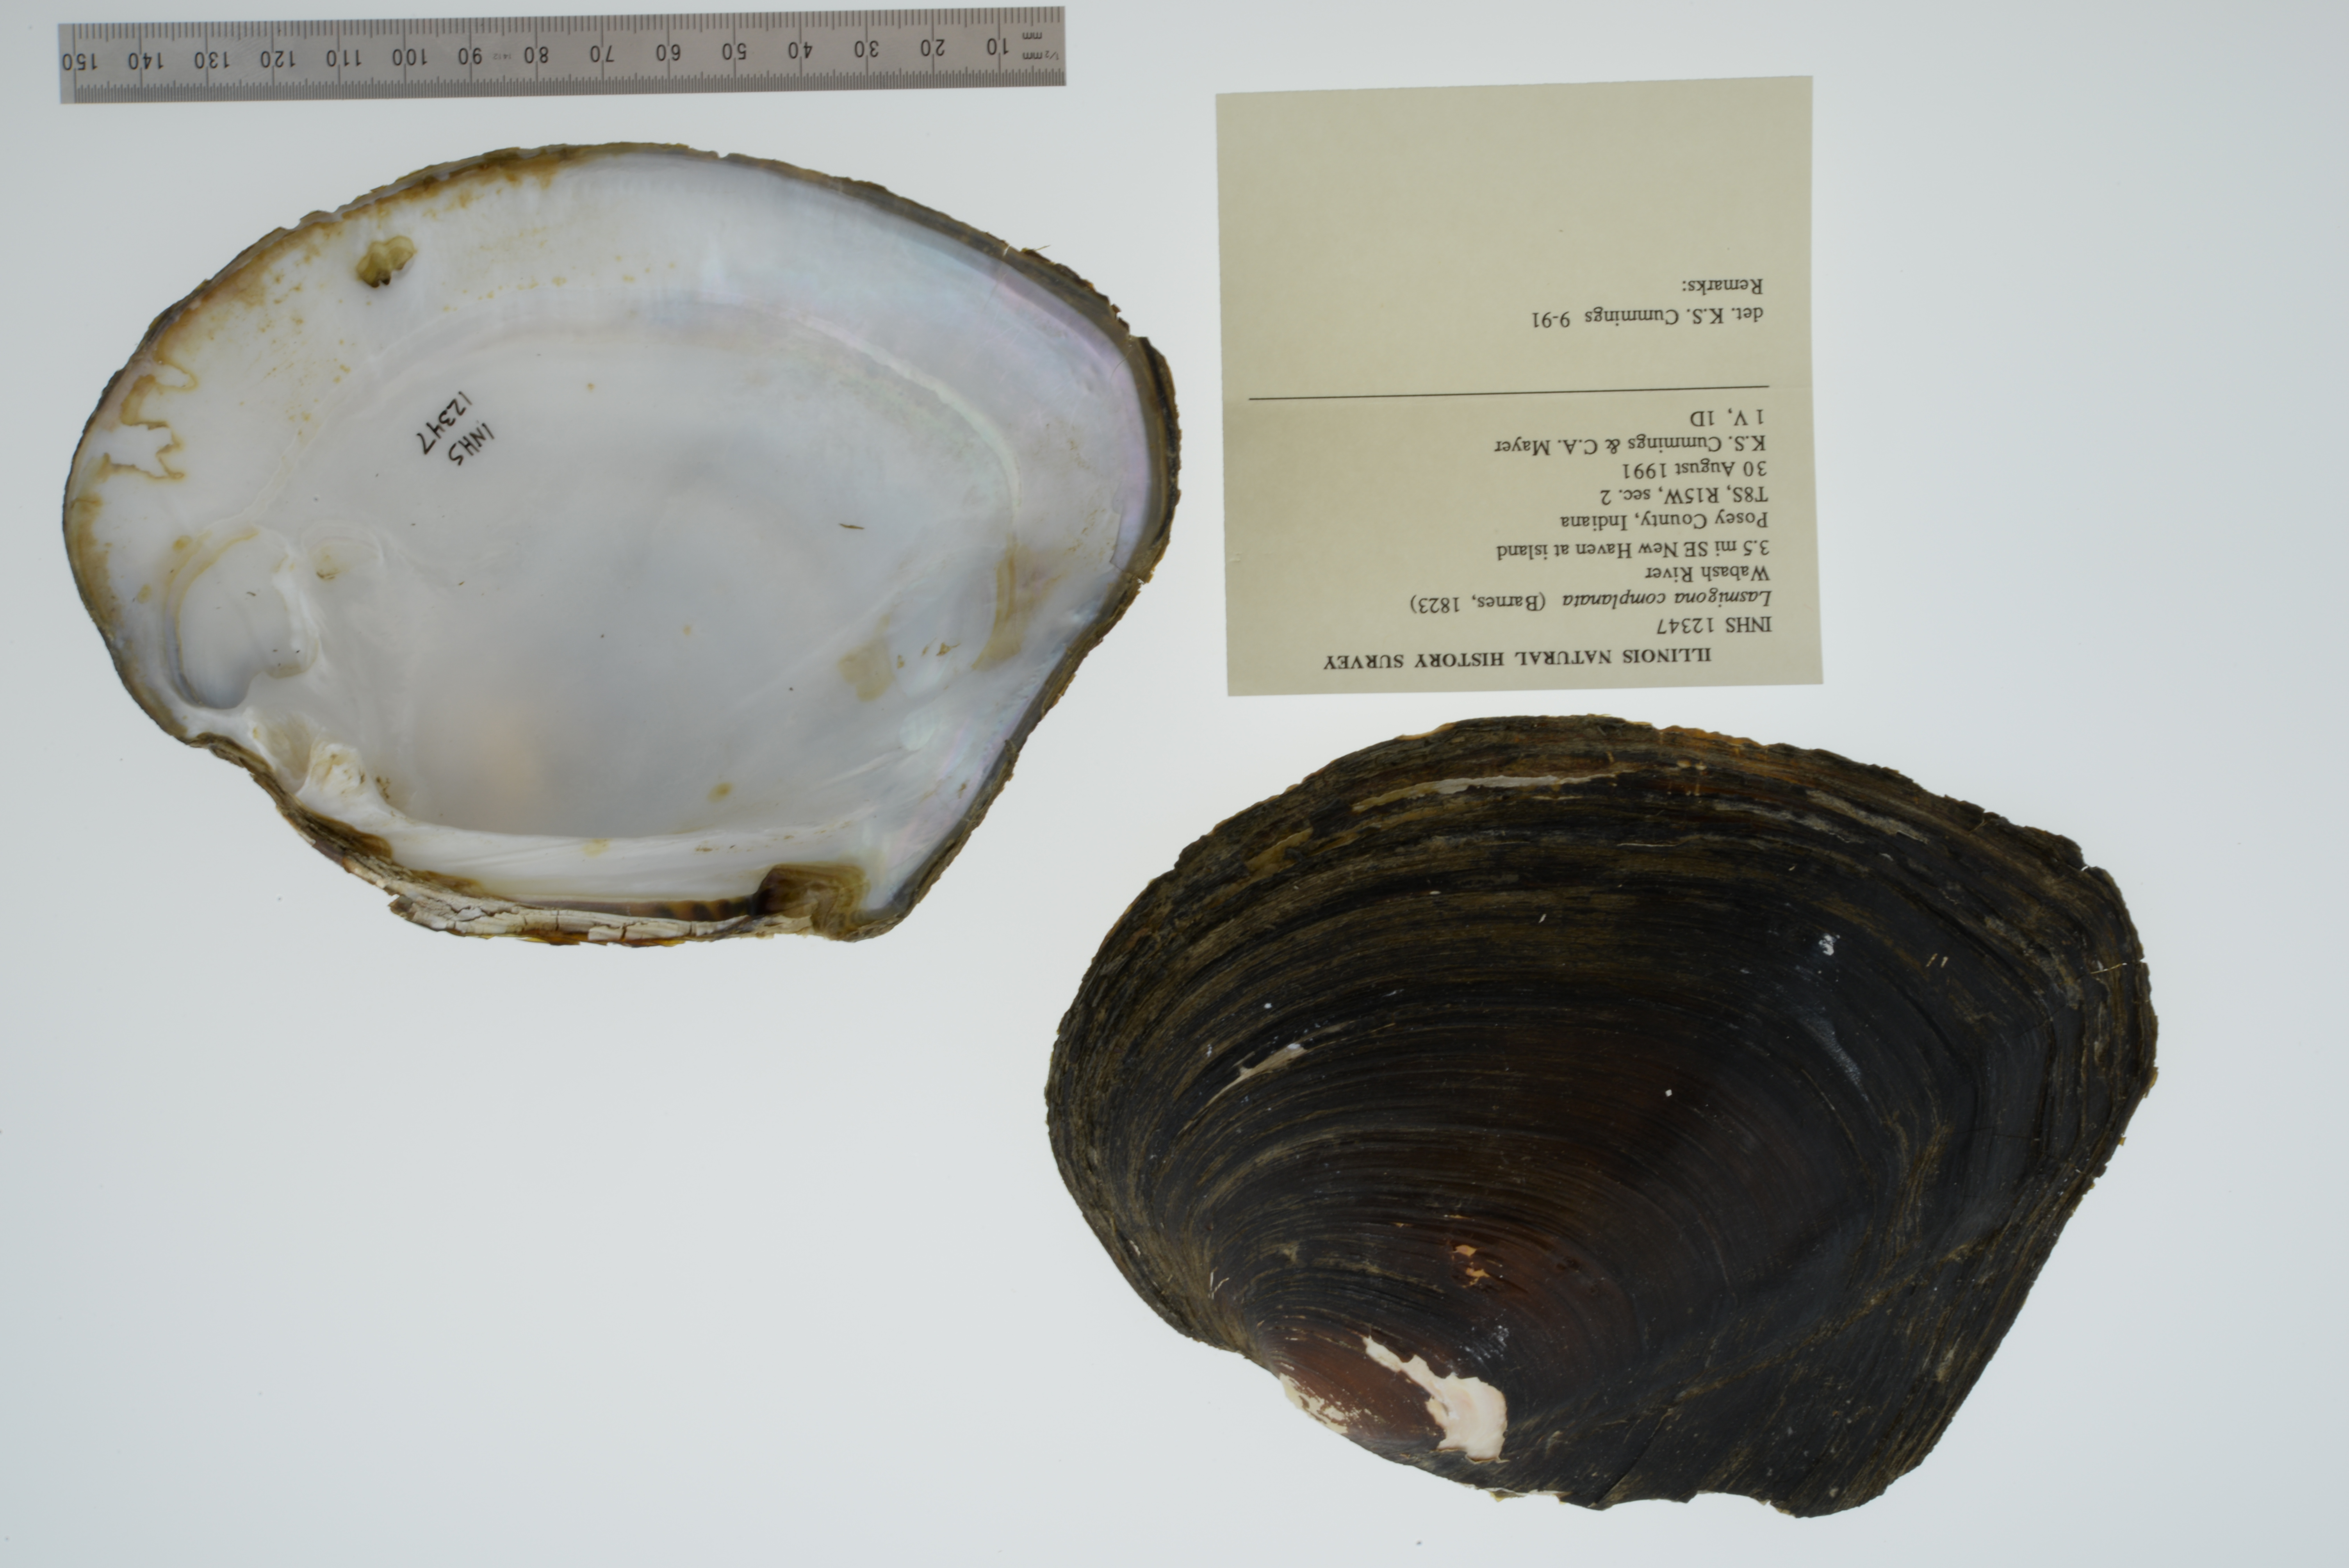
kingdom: Animalia
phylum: Mollusca
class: Bivalvia
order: Unionida
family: Unionidae
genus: Lasmigona
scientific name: Lasmigona complanata
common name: White heelsplitter
